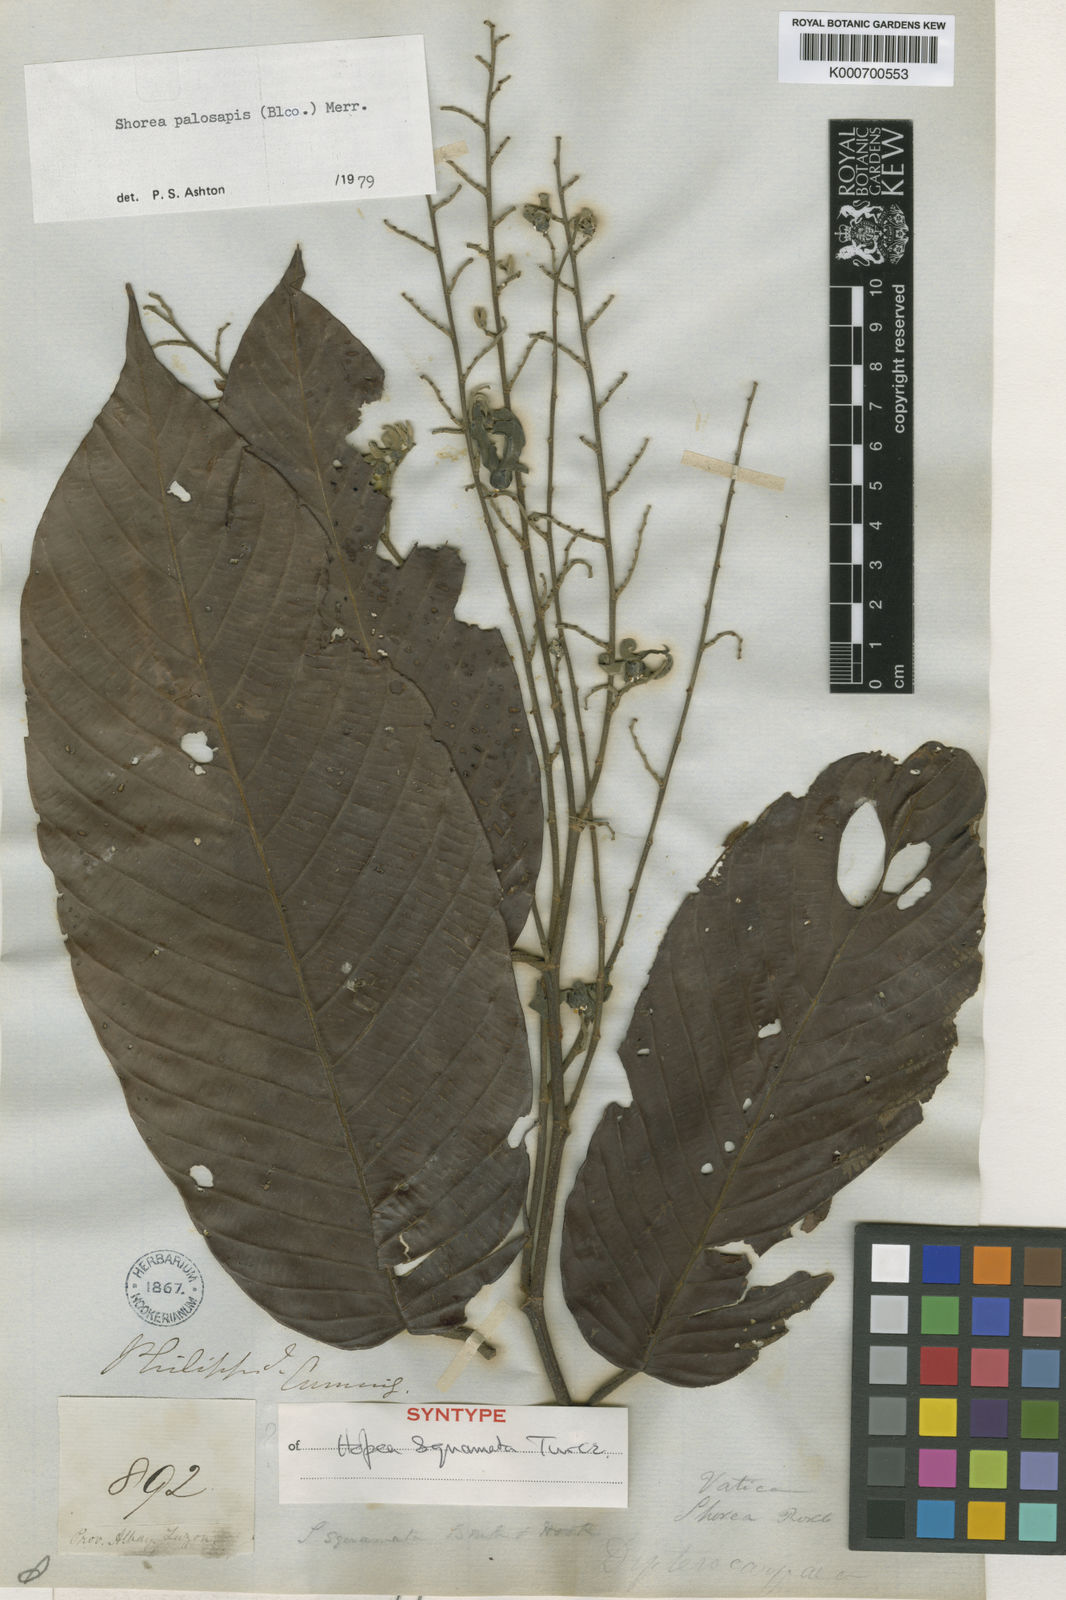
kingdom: Plantae
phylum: Tracheophyta
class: Magnoliopsida
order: Malvales
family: Dipterocarpaceae
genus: Shorea
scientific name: Shorea palosapis
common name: Philippine mahogany
